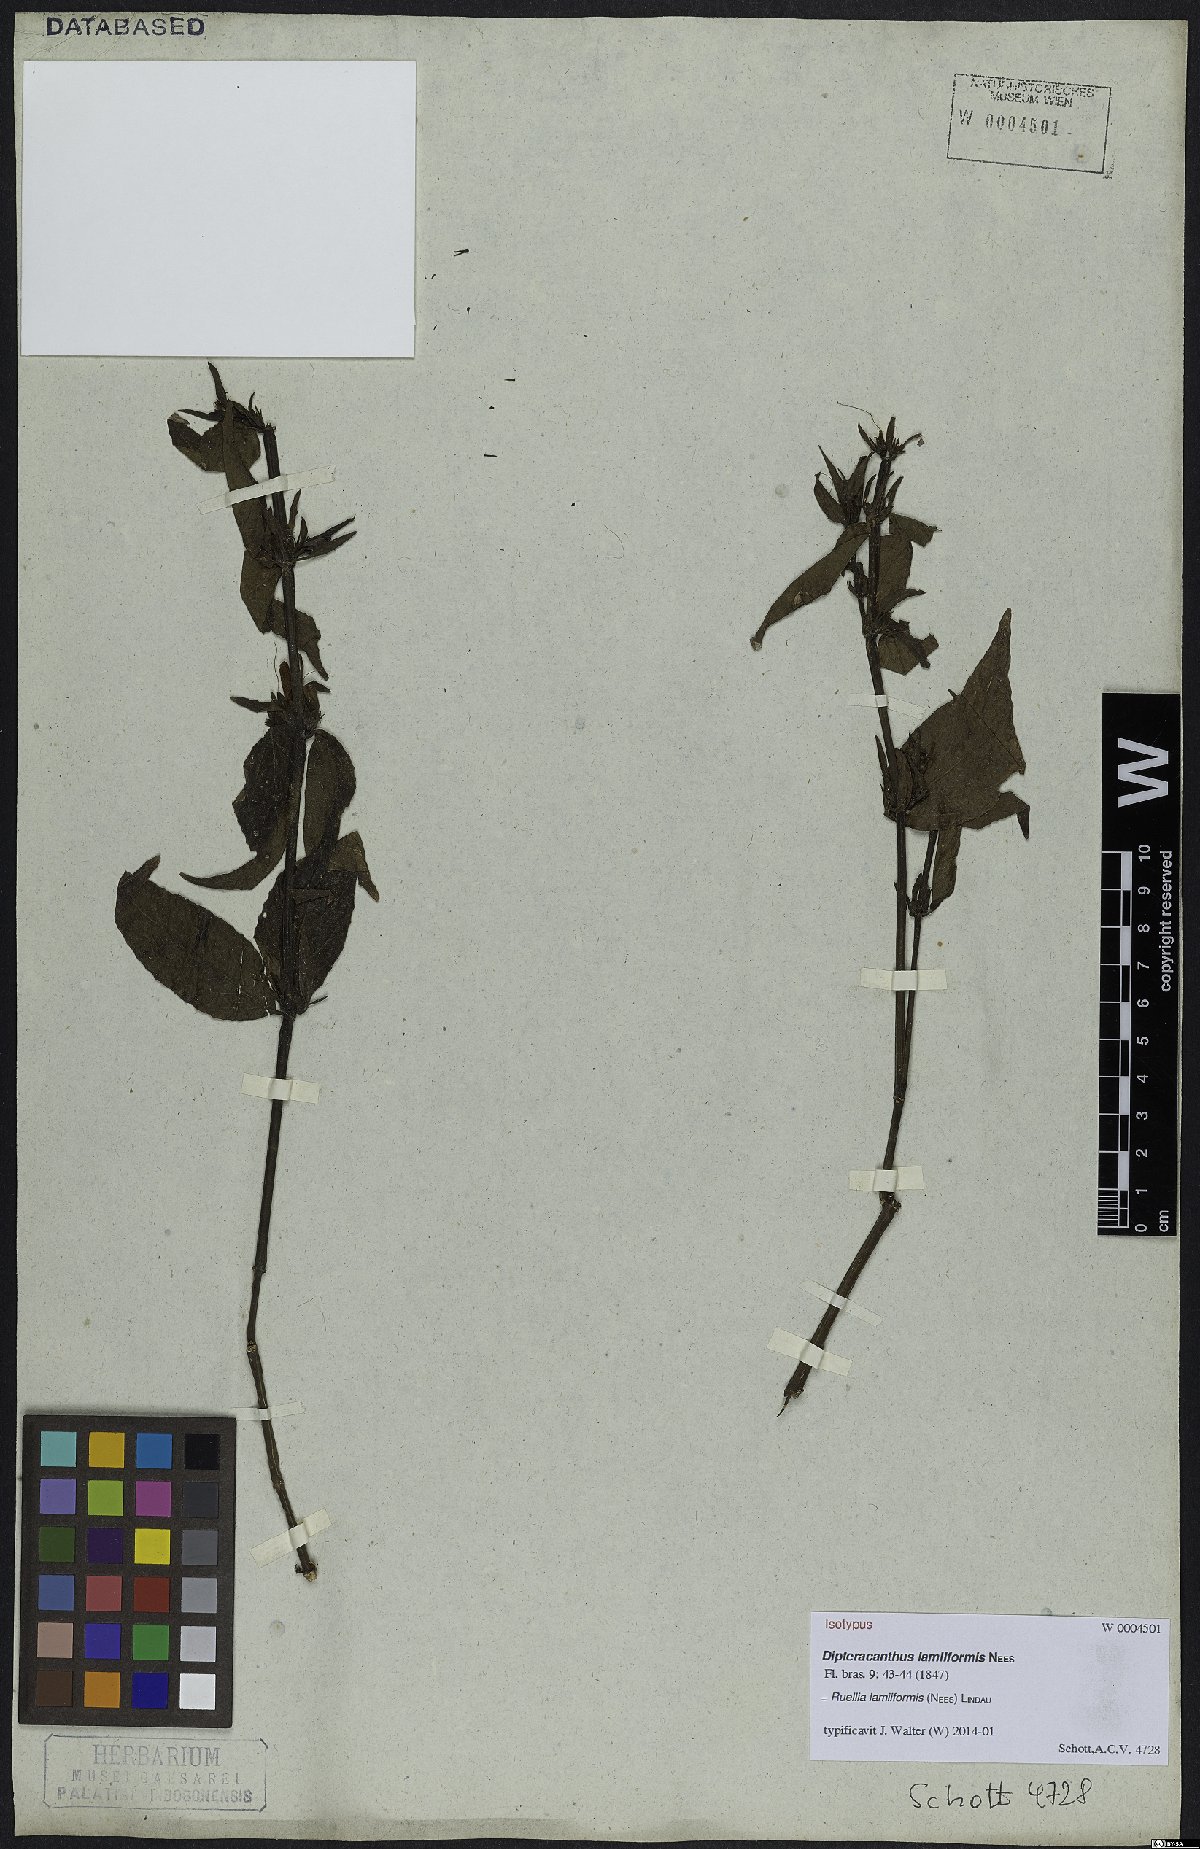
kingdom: Plantae
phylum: Tracheophyta
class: Magnoliopsida
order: Lamiales
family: Acanthaceae
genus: Ruellia
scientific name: Ruellia lamiiformis
